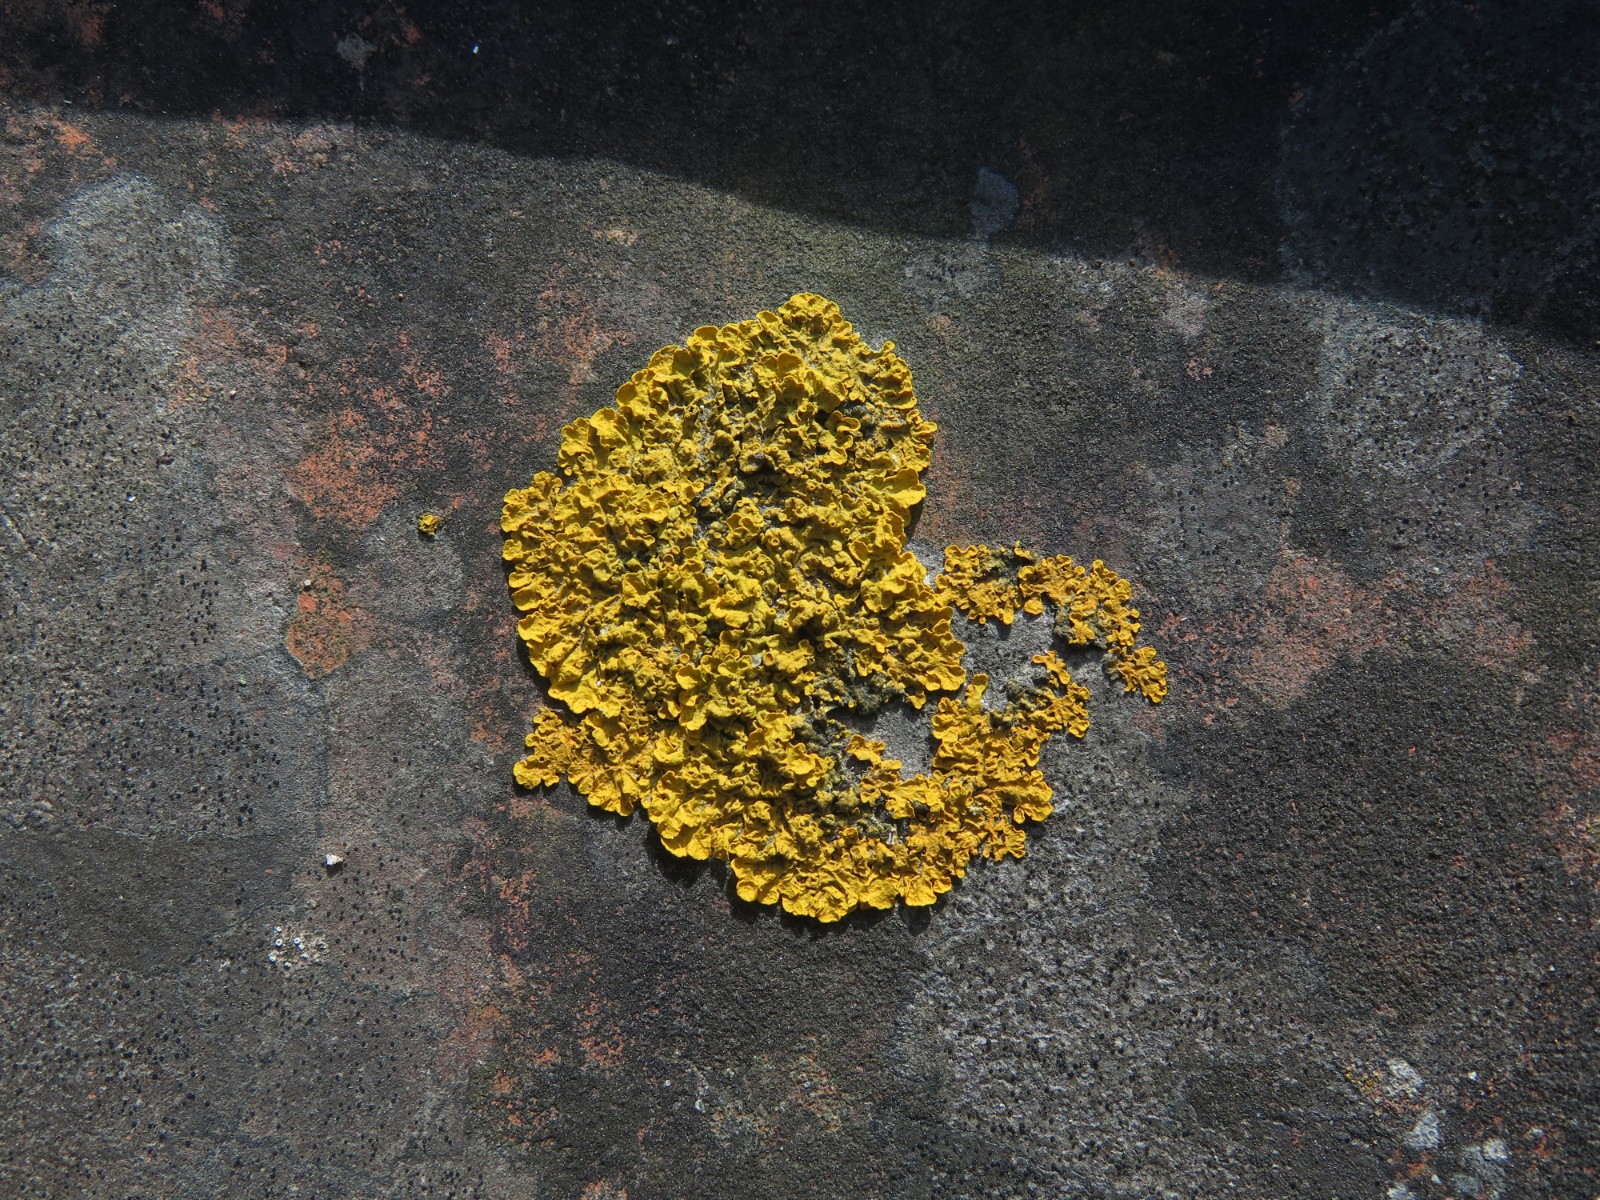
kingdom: Fungi
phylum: Ascomycota
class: Lecanoromycetes
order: Teloschistales
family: Teloschistaceae
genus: Xanthoria
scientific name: Xanthoria parietina
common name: almindelig væggelav
